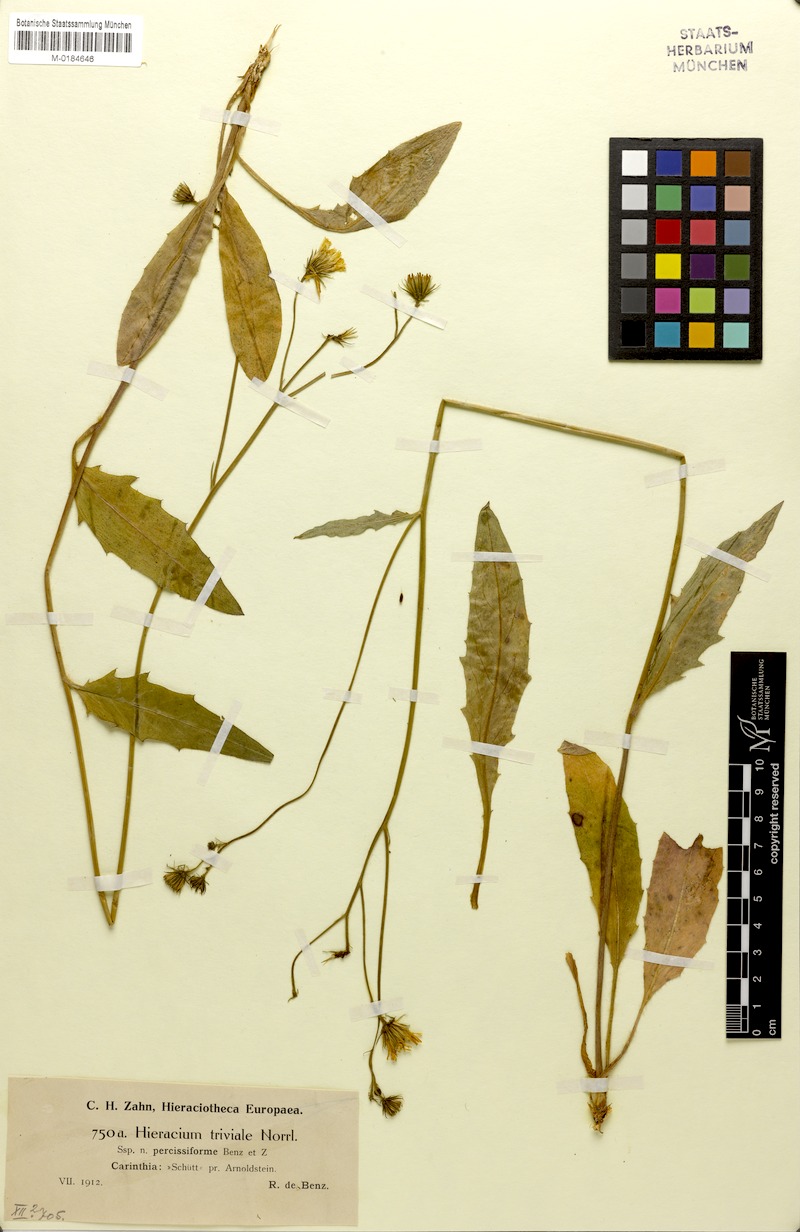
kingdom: Plantae
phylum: Tracheophyta
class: Magnoliopsida
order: Asterales
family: Asteraceae
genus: Hieracium
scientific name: Hieracium levicaule
